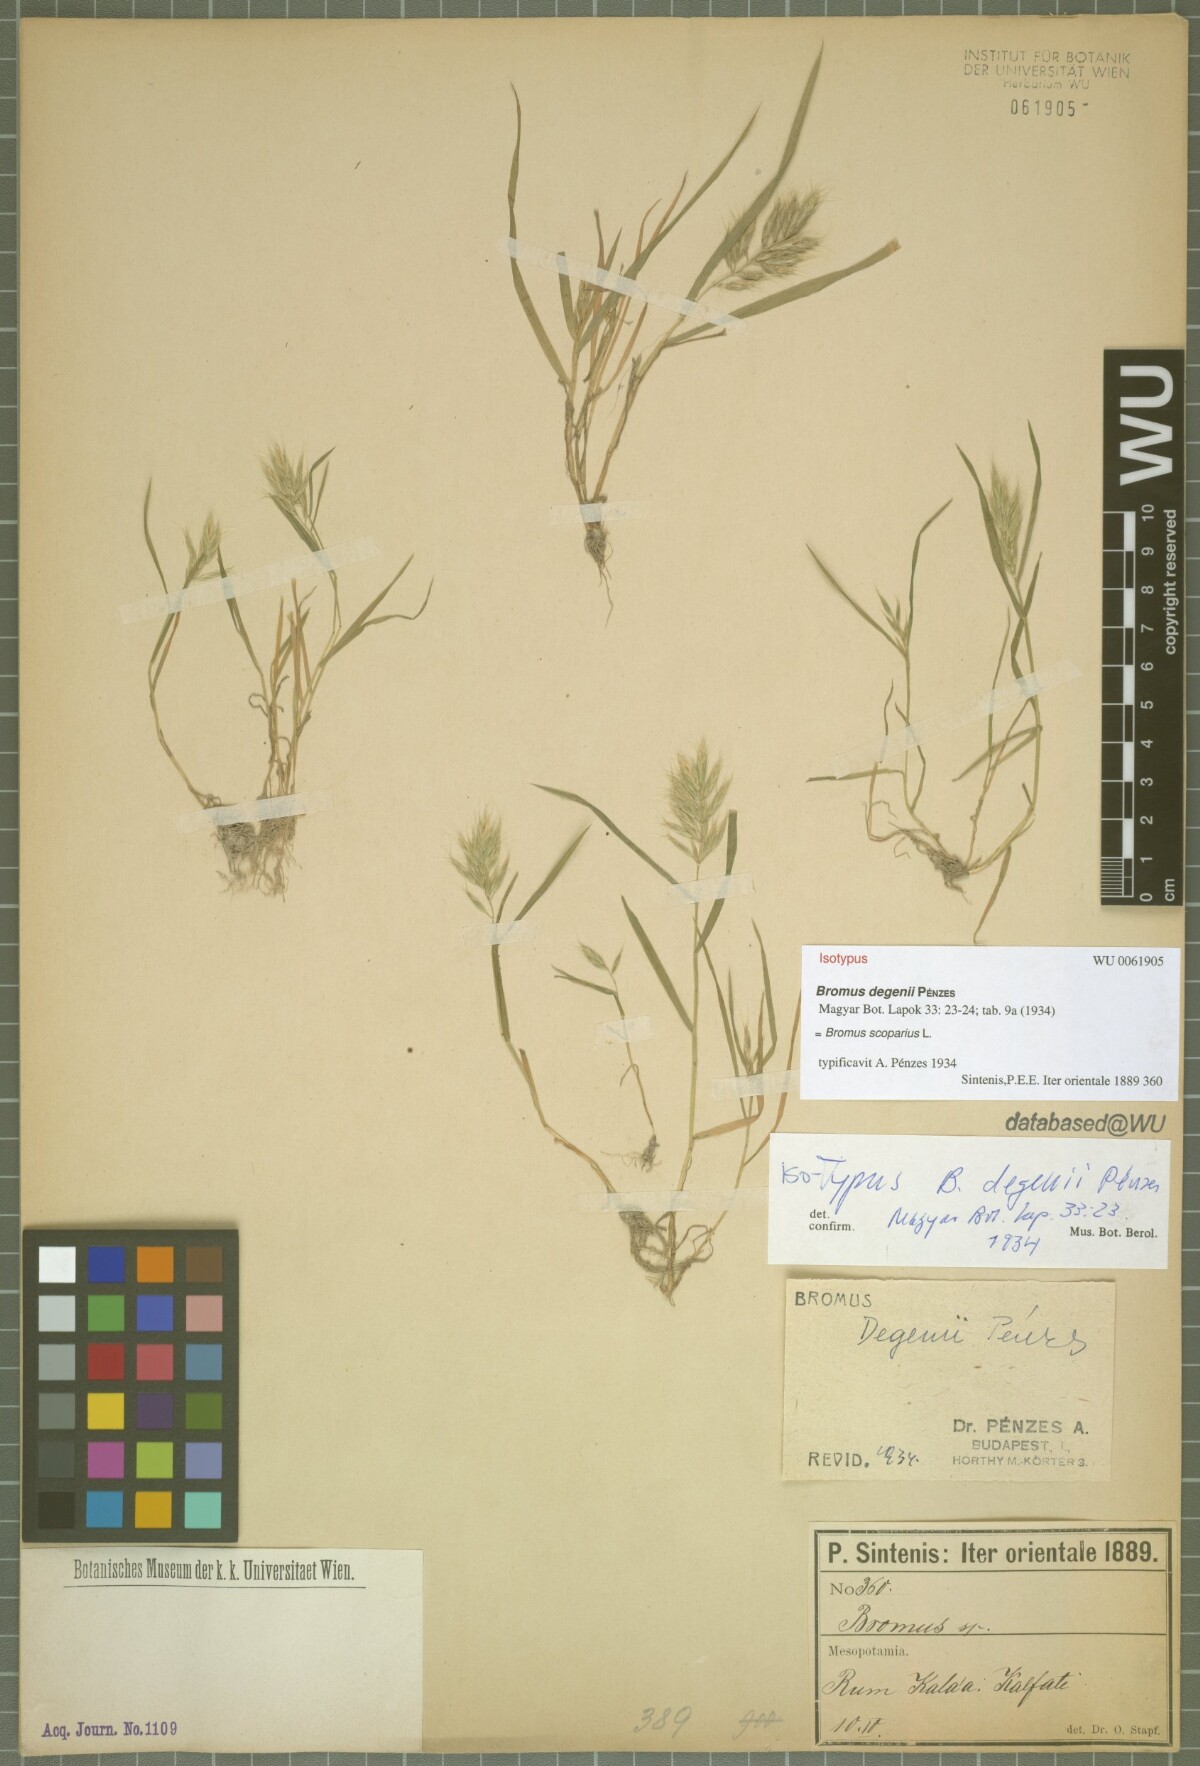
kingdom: Plantae
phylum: Tracheophyta
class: Liliopsida
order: Poales
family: Poaceae
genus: Bromus
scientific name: Bromus scoparius
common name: Broom brome
